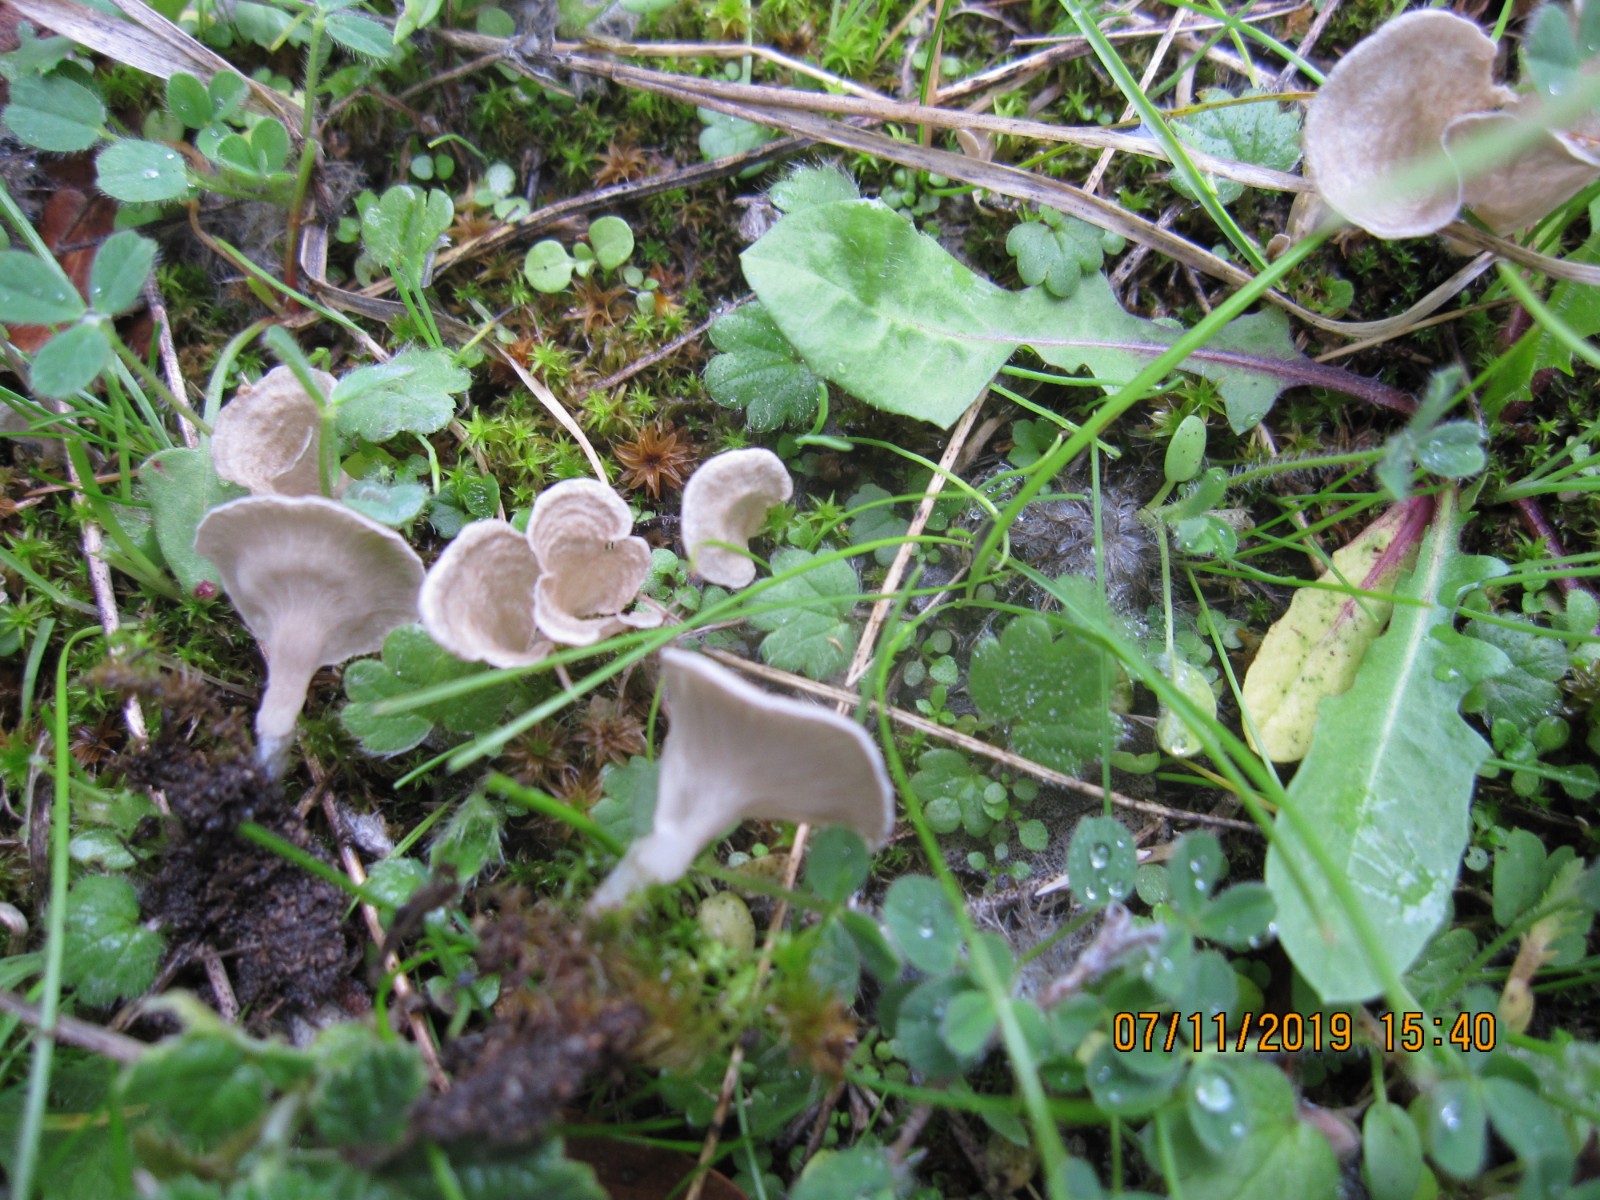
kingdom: Fungi
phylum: Basidiomycota
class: Agaricomycetes
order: Agaricales
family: Hygrophoraceae
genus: Arrhenia
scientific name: Arrhenia spathulata
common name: skæv fontænehat
